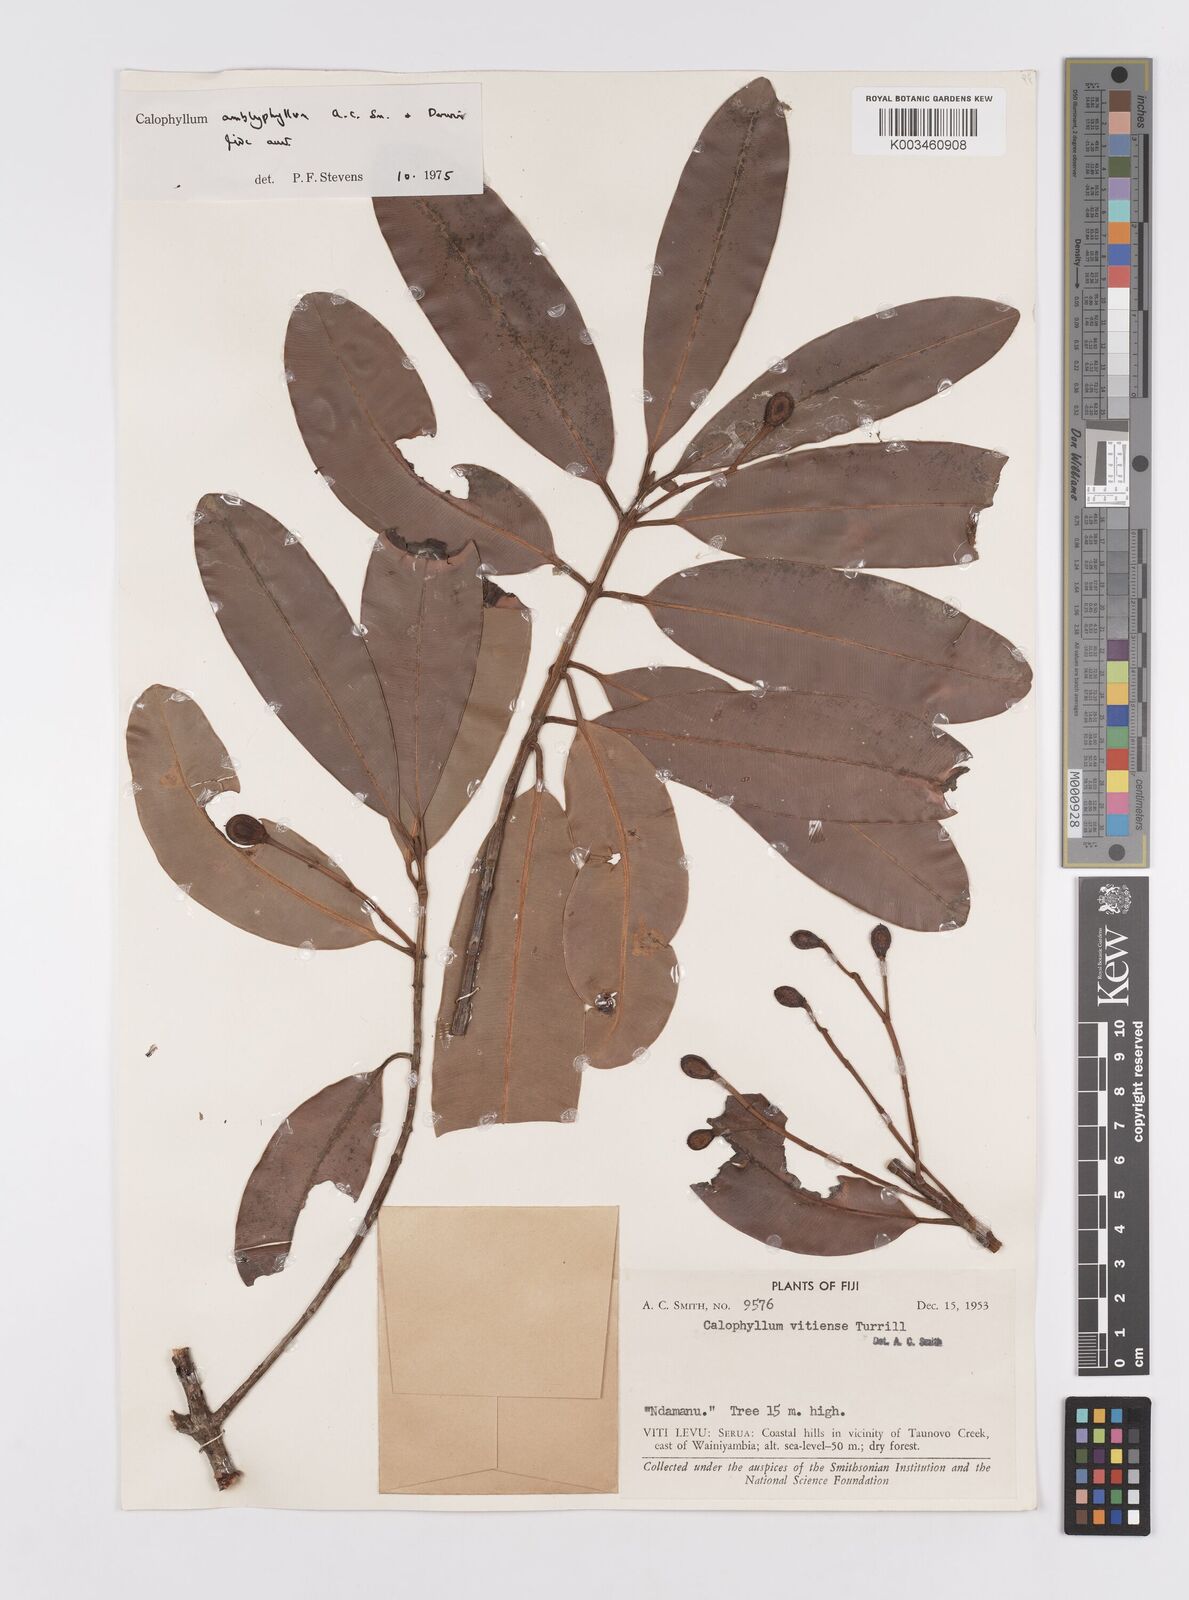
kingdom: Plantae
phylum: Tracheophyta
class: Magnoliopsida
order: Malpighiales
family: Calophyllaceae
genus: Calophyllum
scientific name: Calophyllum vitiense
